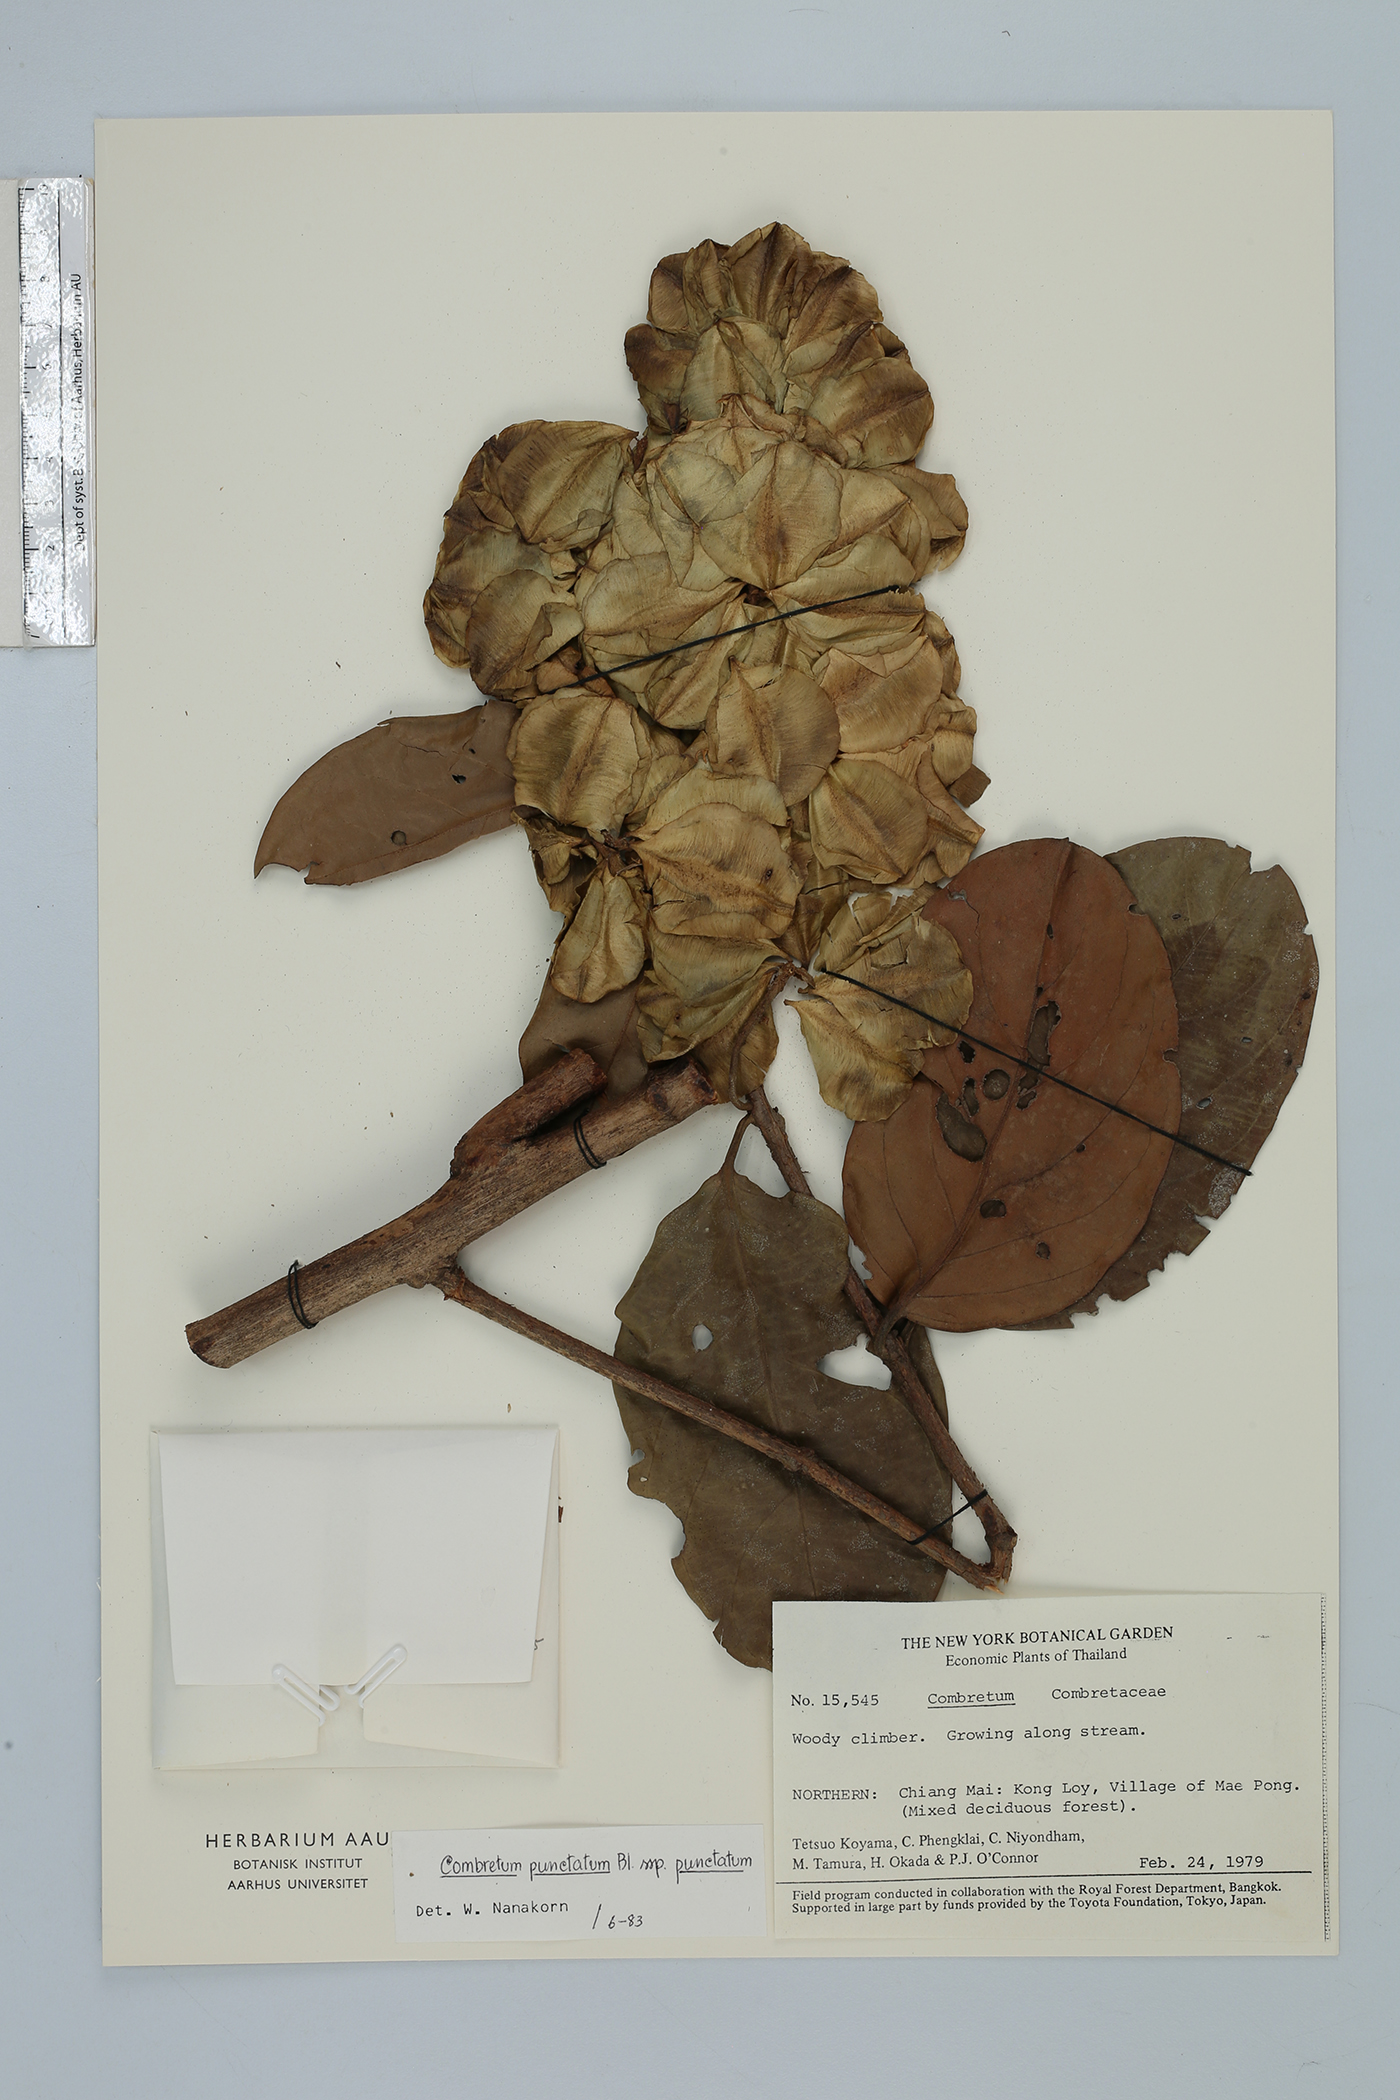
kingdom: Plantae
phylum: Tracheophyta
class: Magnoliopsida
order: Myrtales
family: Combretaceae
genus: Combretum
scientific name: Combretum punctatum
